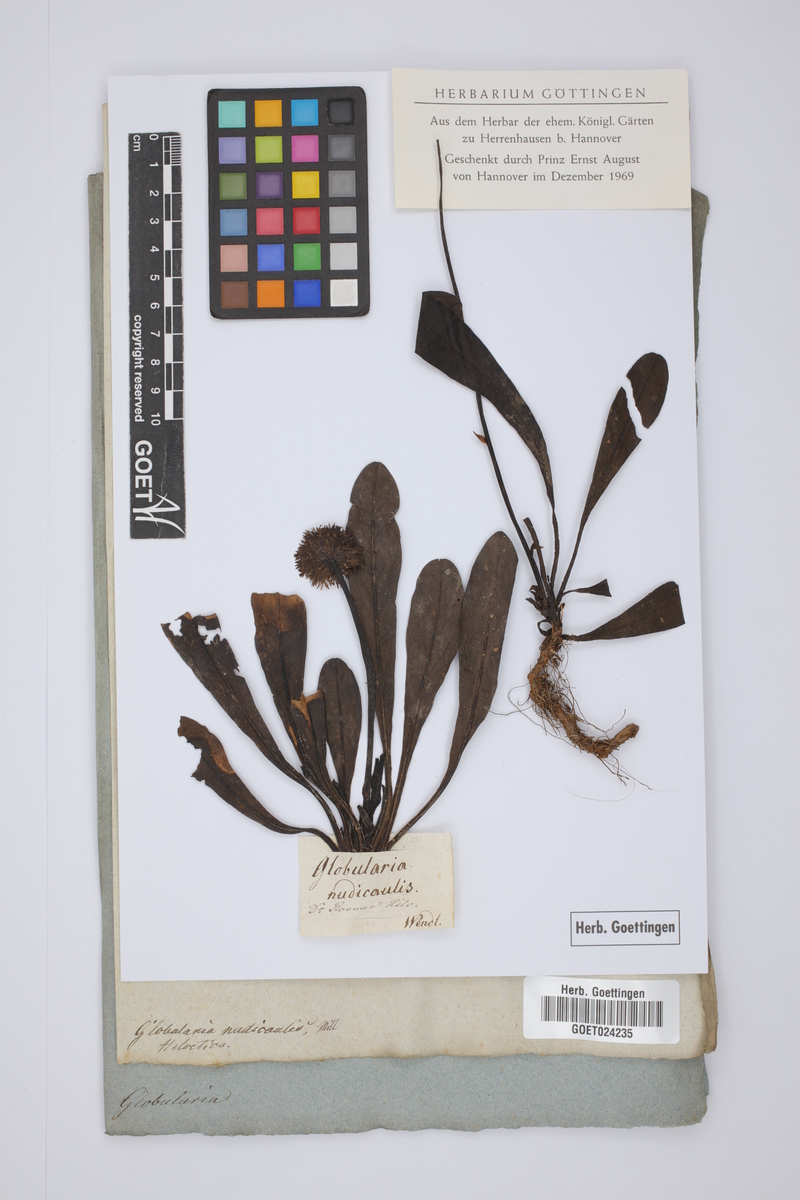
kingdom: Plantae
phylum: Tracheophyta
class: Magnoliopsida
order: Lamiales
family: Plantaginaceae
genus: Globularia
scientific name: Globularia nudicaulis
